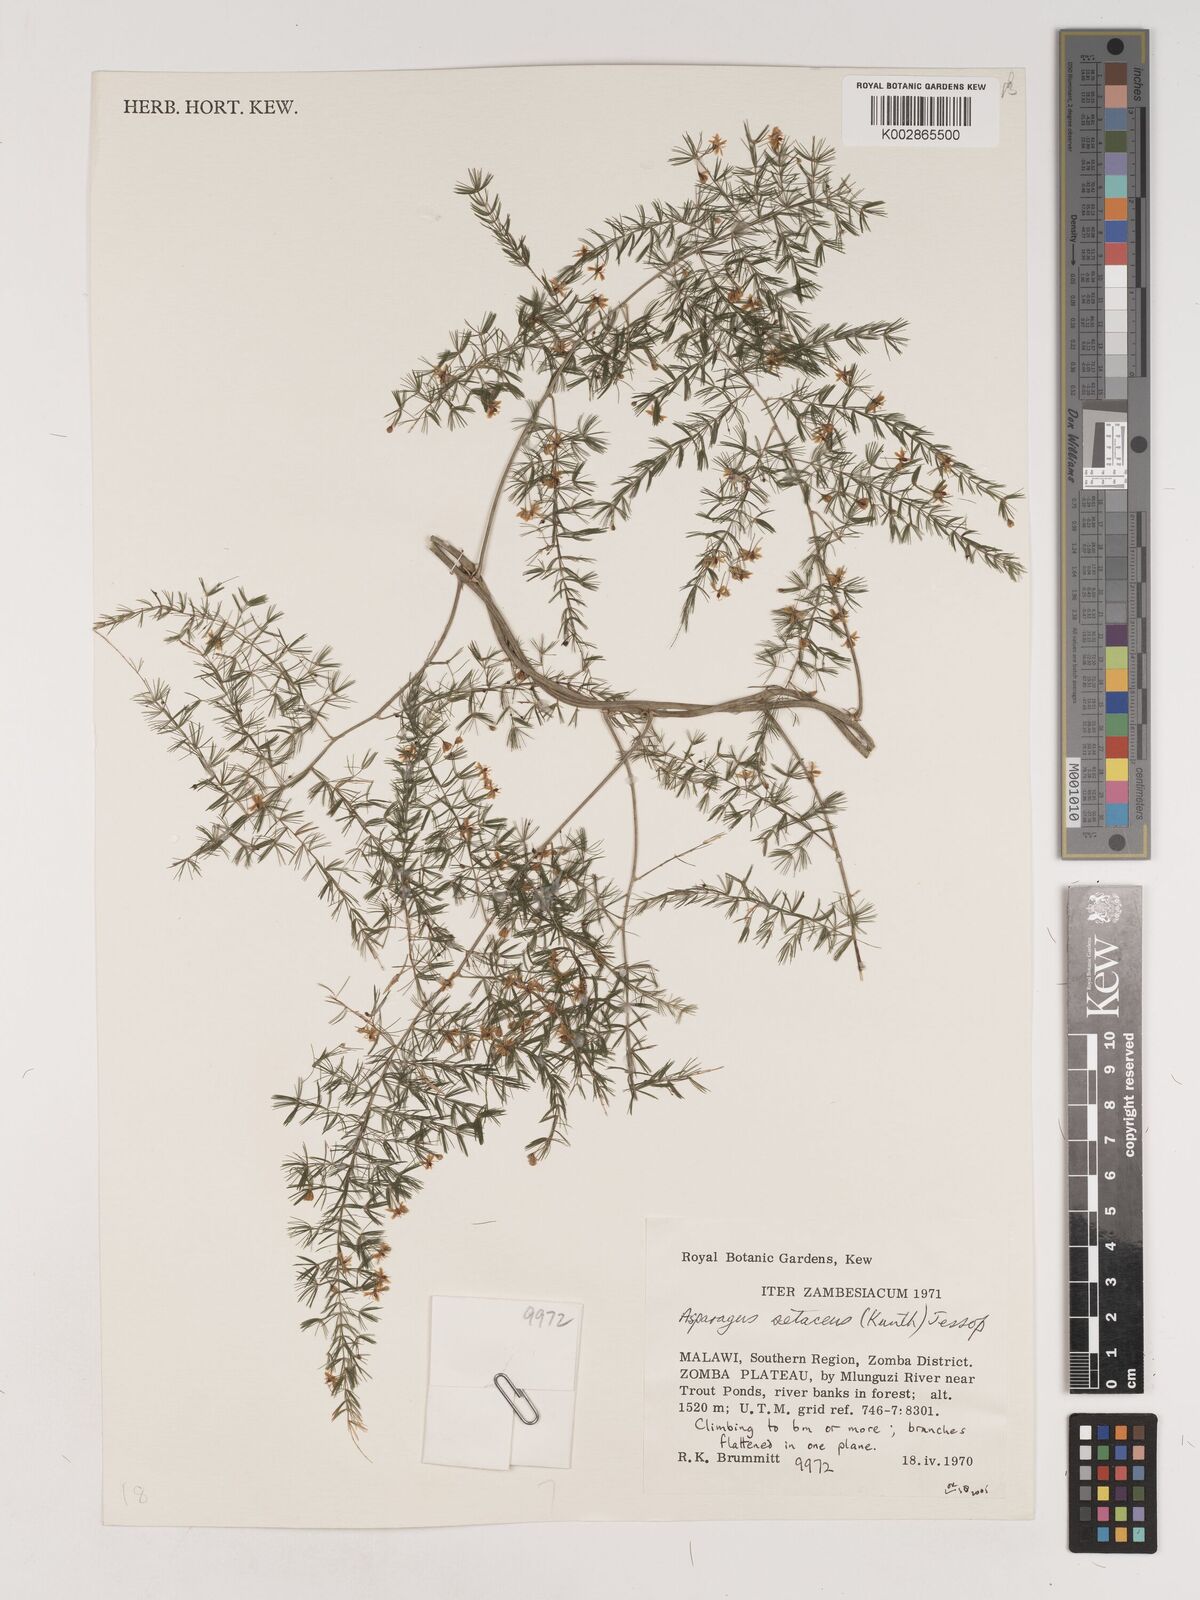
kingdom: Plantae
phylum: Tracheophyta
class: Liliopsida
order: Asparagales
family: Asparagaceae
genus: Asparagus
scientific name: Asparagus setaceus
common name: Common asparagus fern
